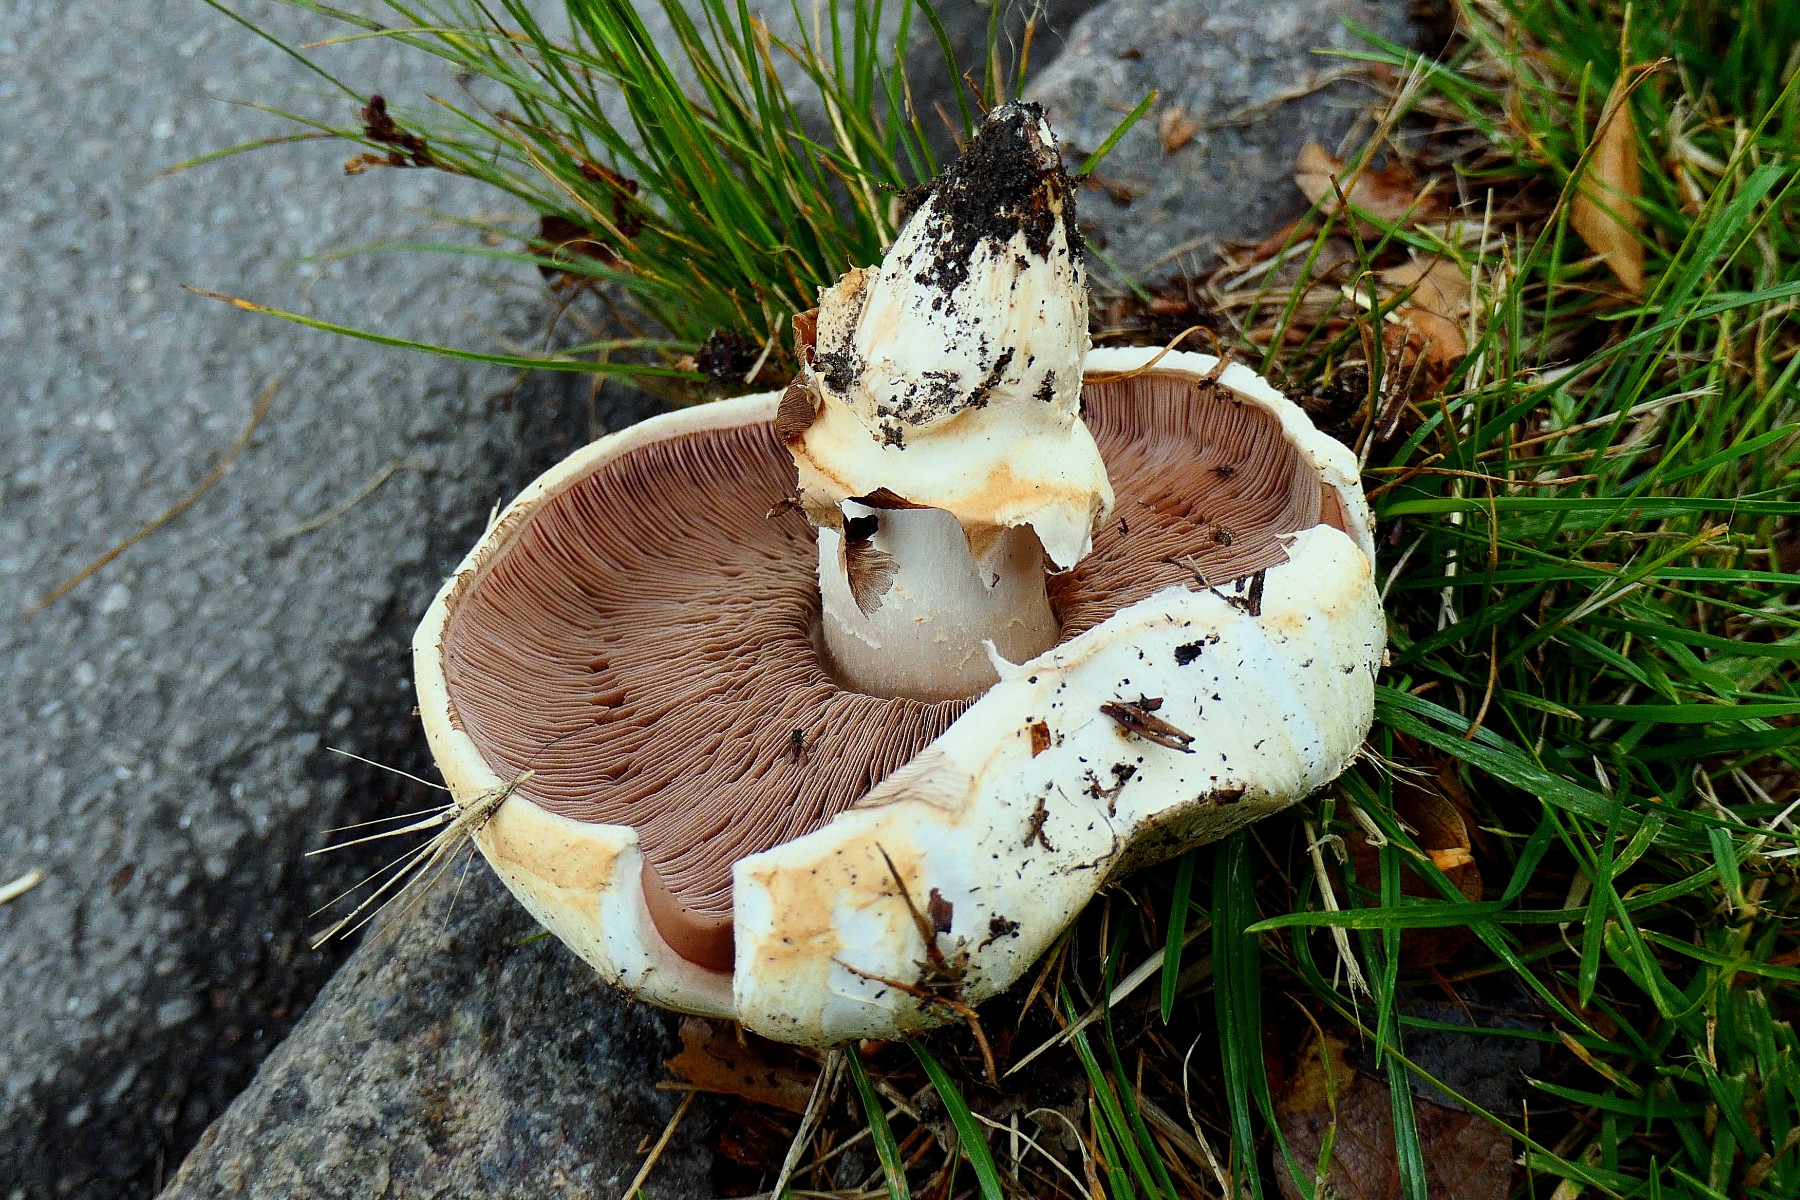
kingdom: Fungi
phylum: Basidiomycota
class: Agaricomycetes
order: Agaricales
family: Agaricaceae
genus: Agaricus
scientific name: Agaricus bitorquis
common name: vej-champignon
